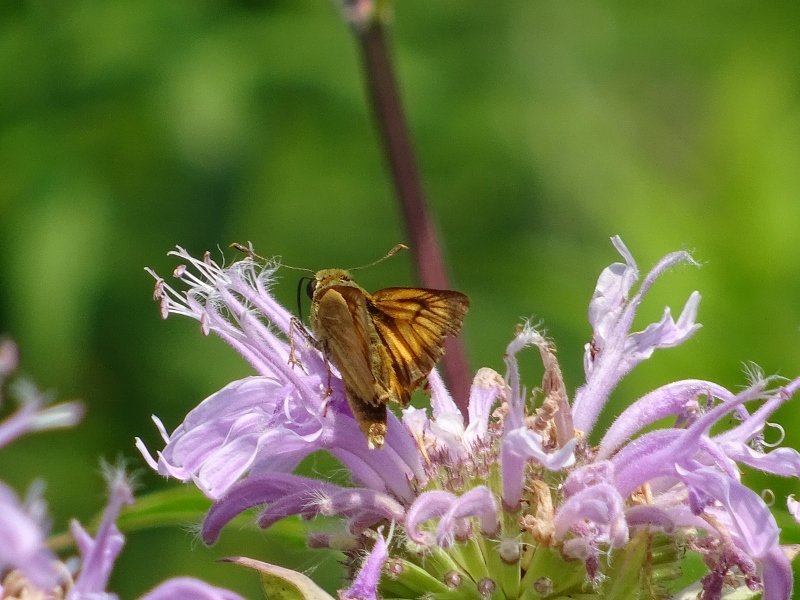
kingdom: Animalia
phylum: Arthropoda
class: Insecta
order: Lepidoptera
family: Hesperiidae
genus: Atrytone
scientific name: Atrytone delaware
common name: Delaware Skipper
